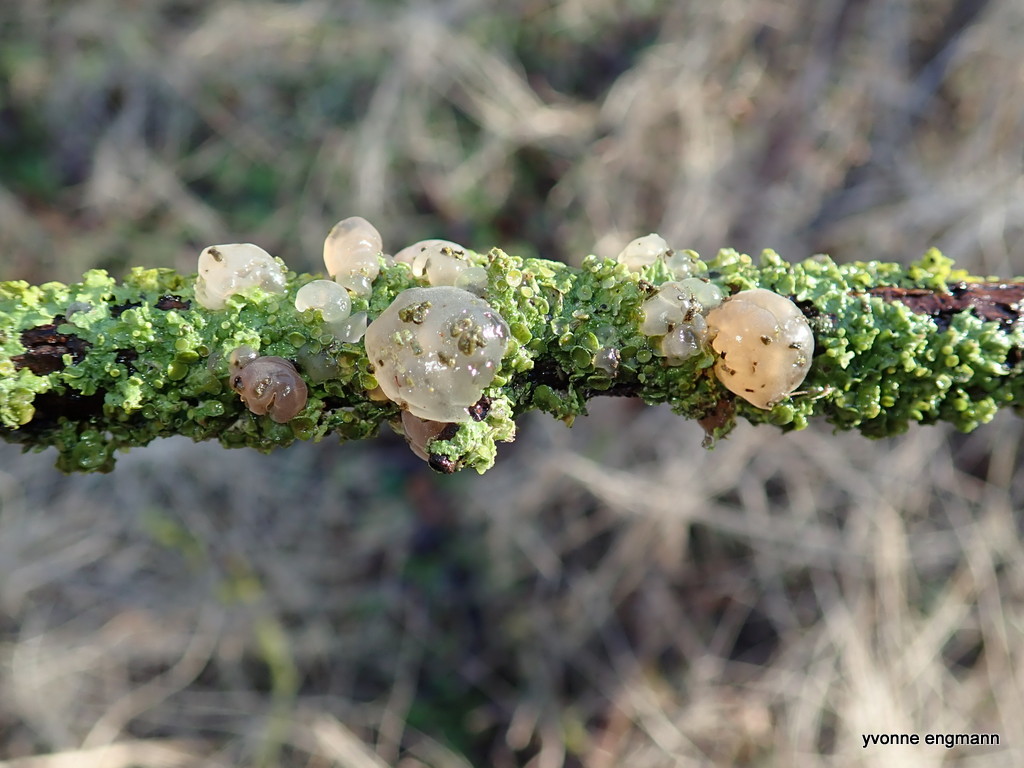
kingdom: Fungi
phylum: Basidiomycota
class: Agaricomycetes
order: Auriculariales
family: Hyaloriaceae
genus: Myxarium
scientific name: Myxarium nucleatum
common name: klar bævretop
